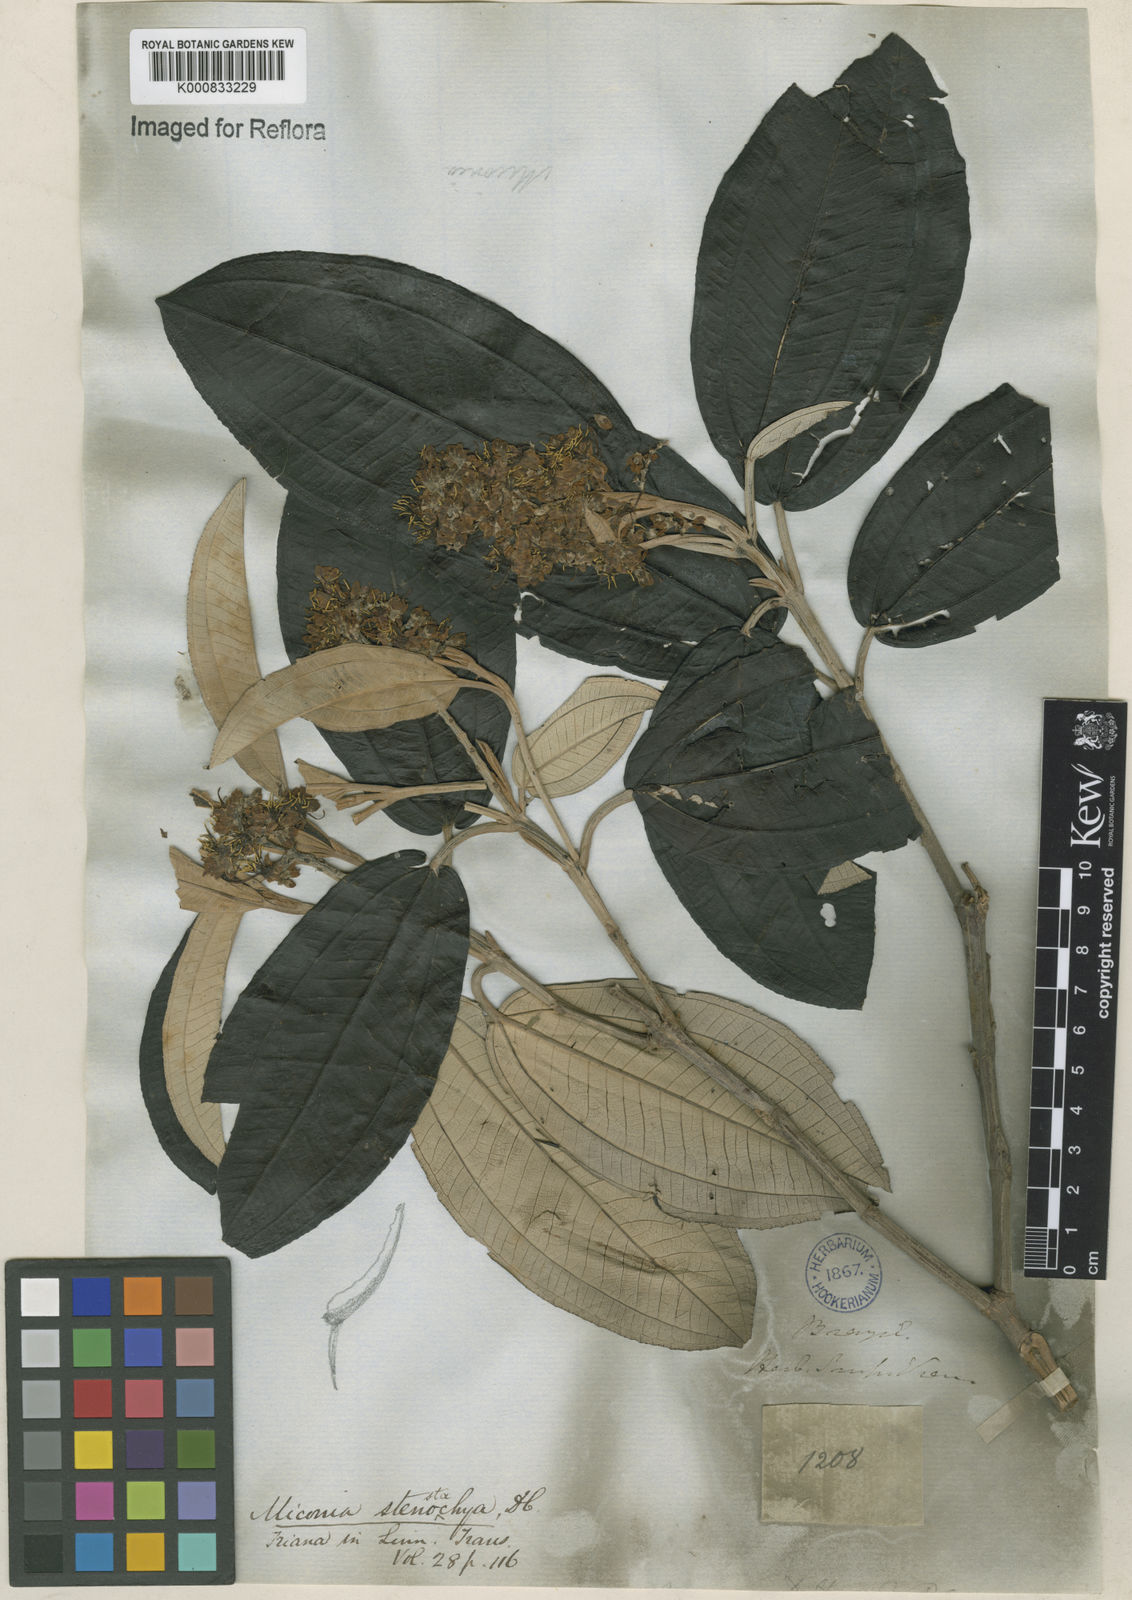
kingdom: Plantae
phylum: Tracheophyta
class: Magnoliopsida
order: Myrtales
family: Melastomataceae
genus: Miconia
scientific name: Miconia stenostachya
